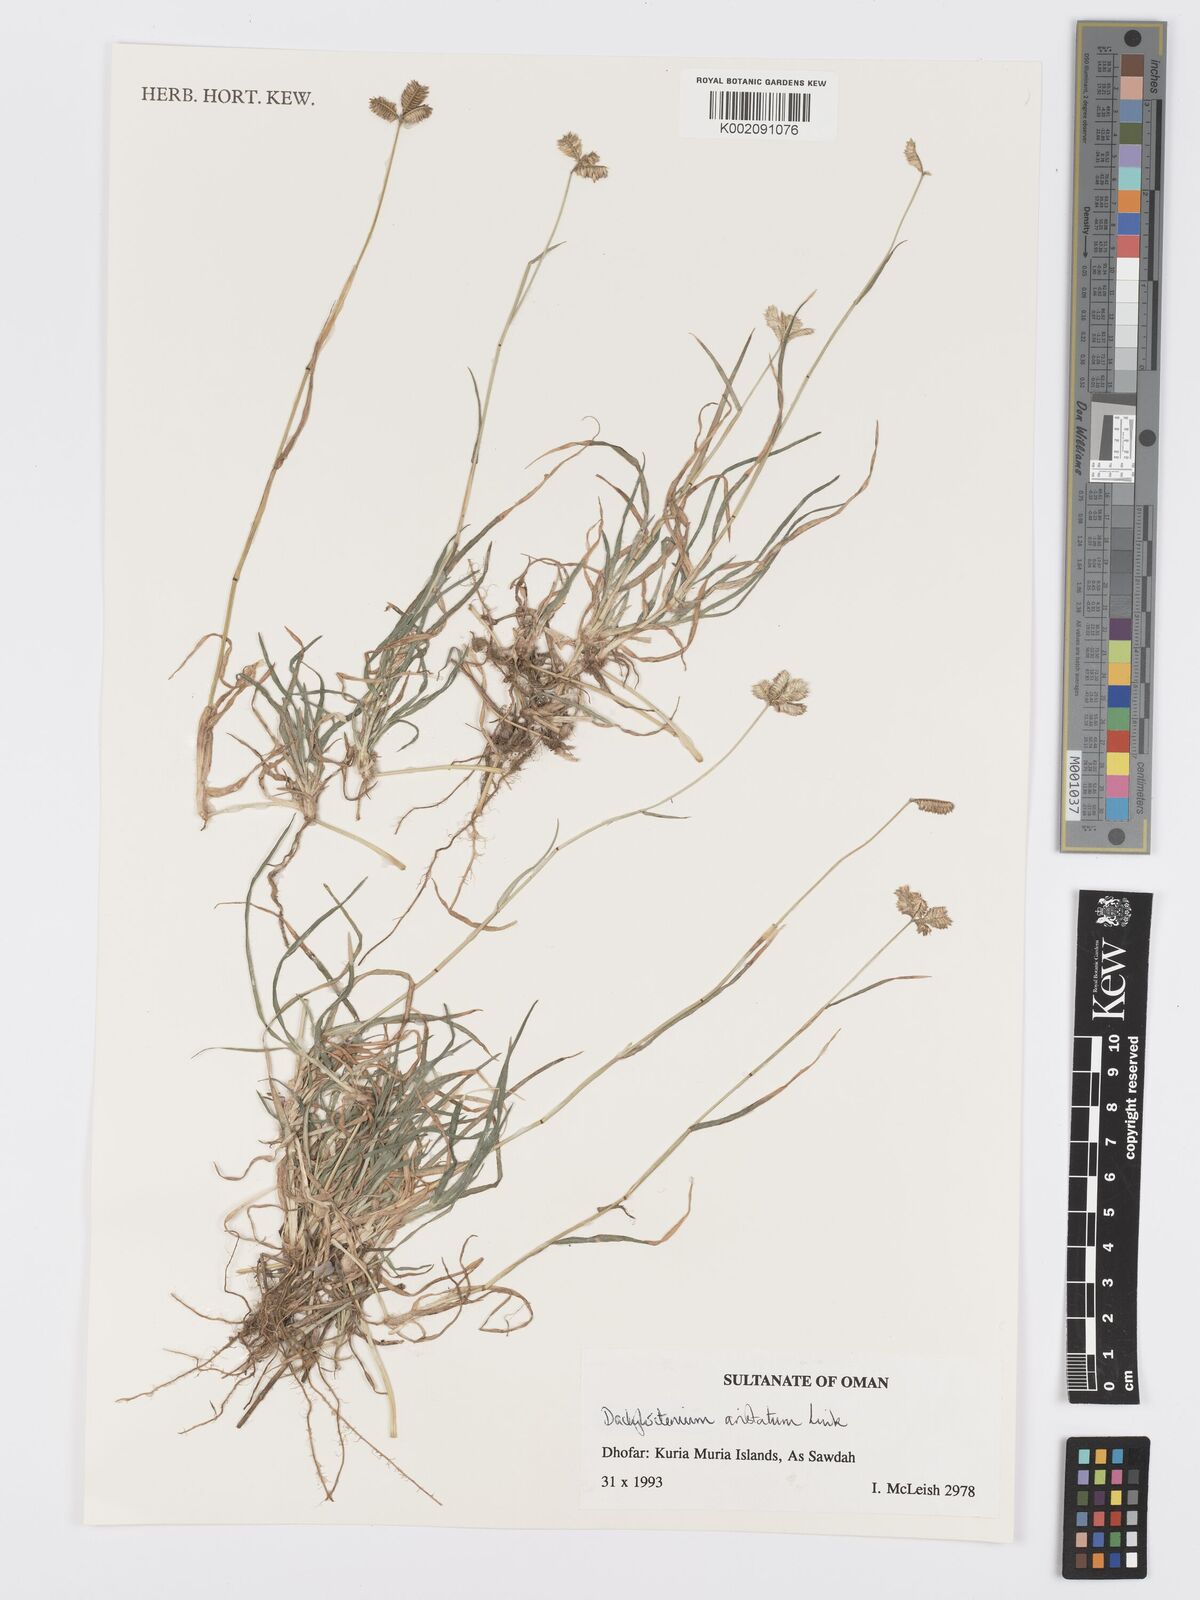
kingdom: Plantae
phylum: Tracheophyta
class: Liliopsida
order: Poales
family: Poaceae
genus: Dactyloctenium
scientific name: Dactyloctenium aristatum
